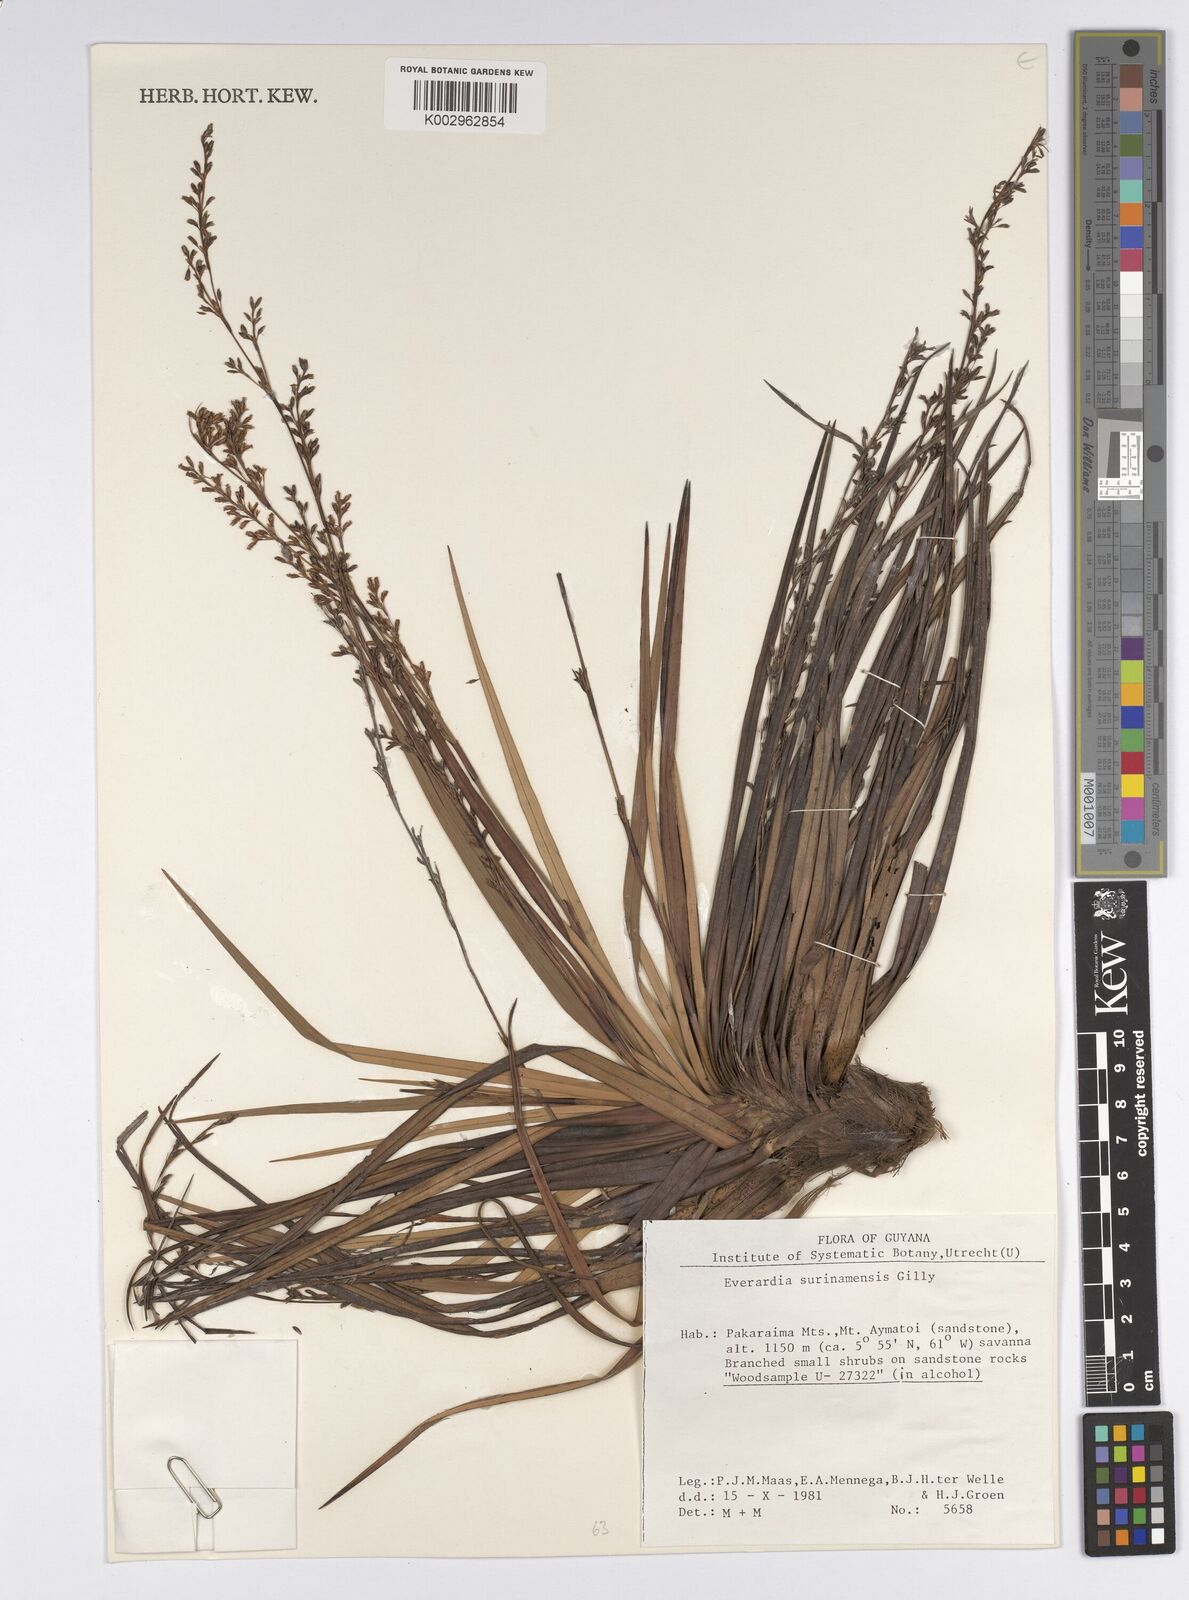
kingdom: Plantae
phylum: Tracheophyta
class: Liliopsida
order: Poales
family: Cyperaceae
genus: Cephalocarpus
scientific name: Cephalocarpus montanus
